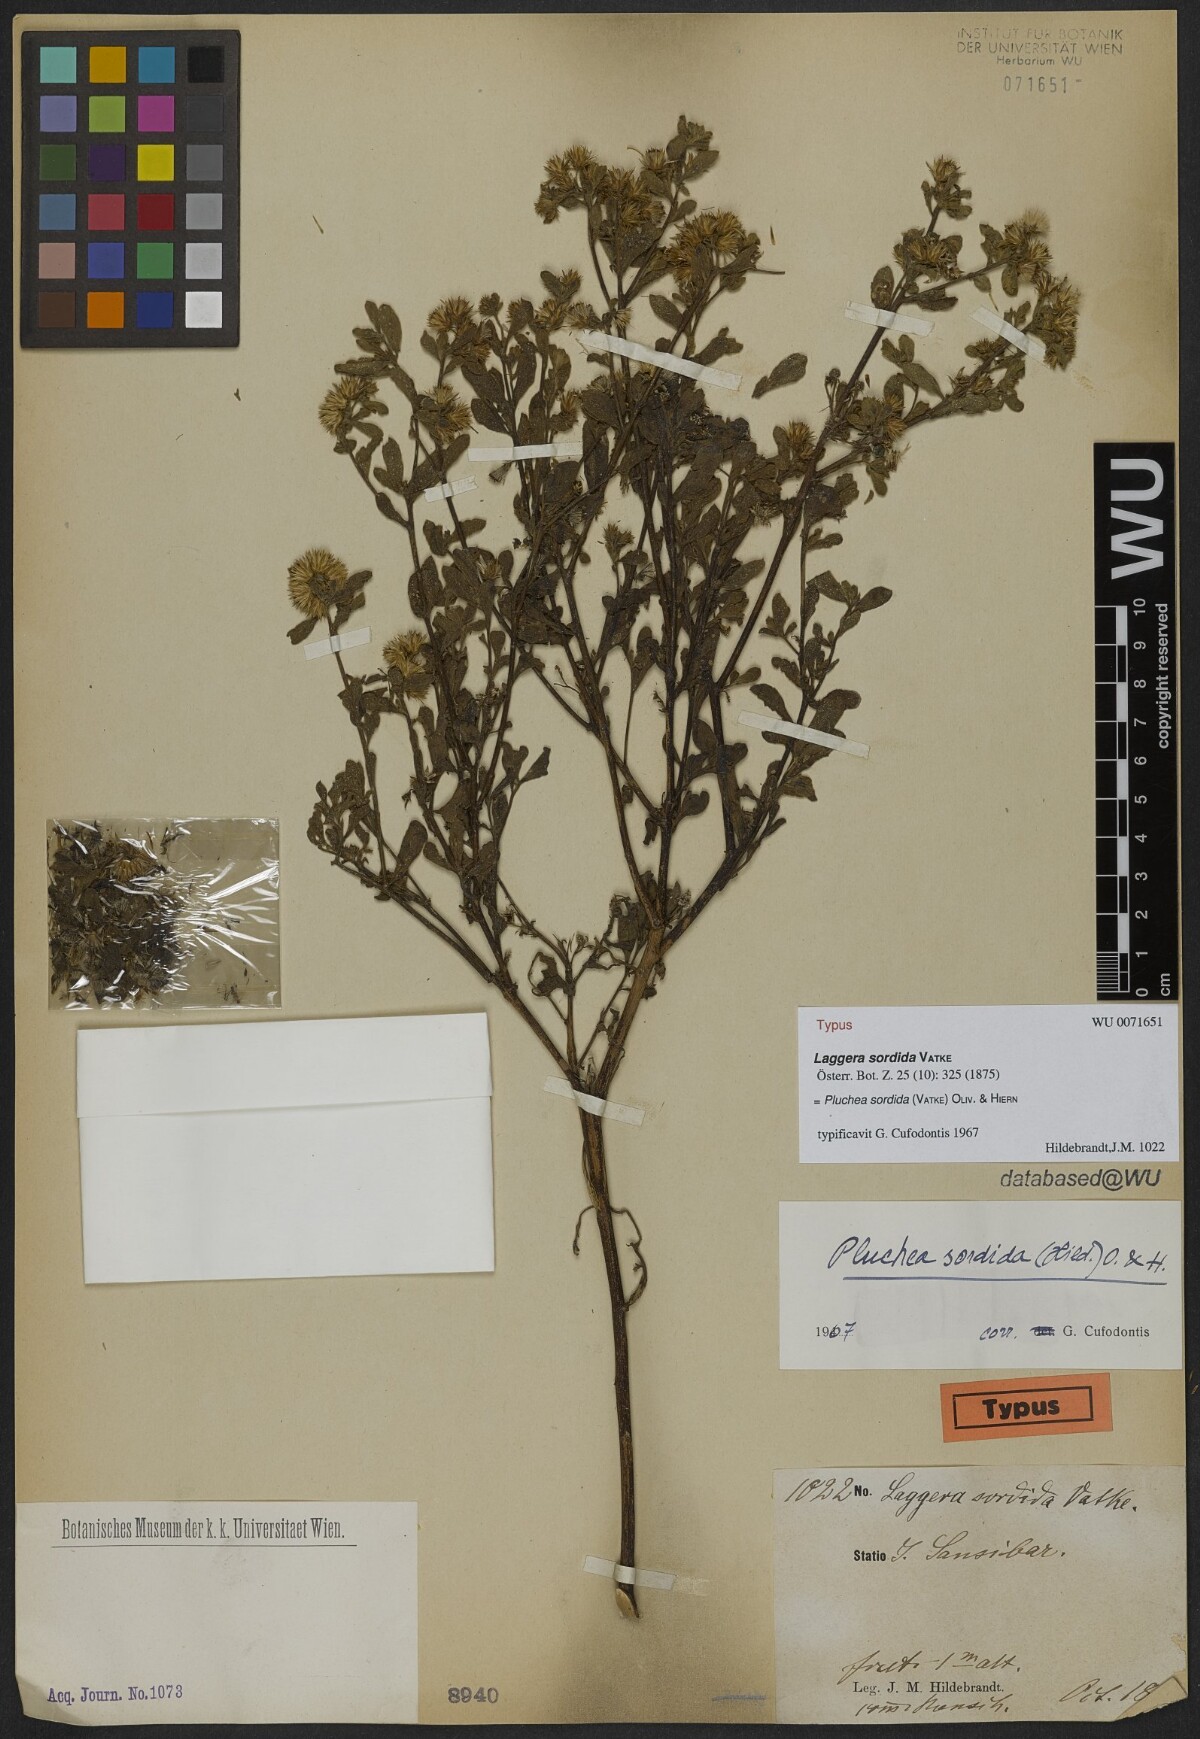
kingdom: Plantae
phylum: Tracheophyta
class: Magnoliopsida
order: Asterales
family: Asteraceae
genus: Pluchea
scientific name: Pluchea sordida
